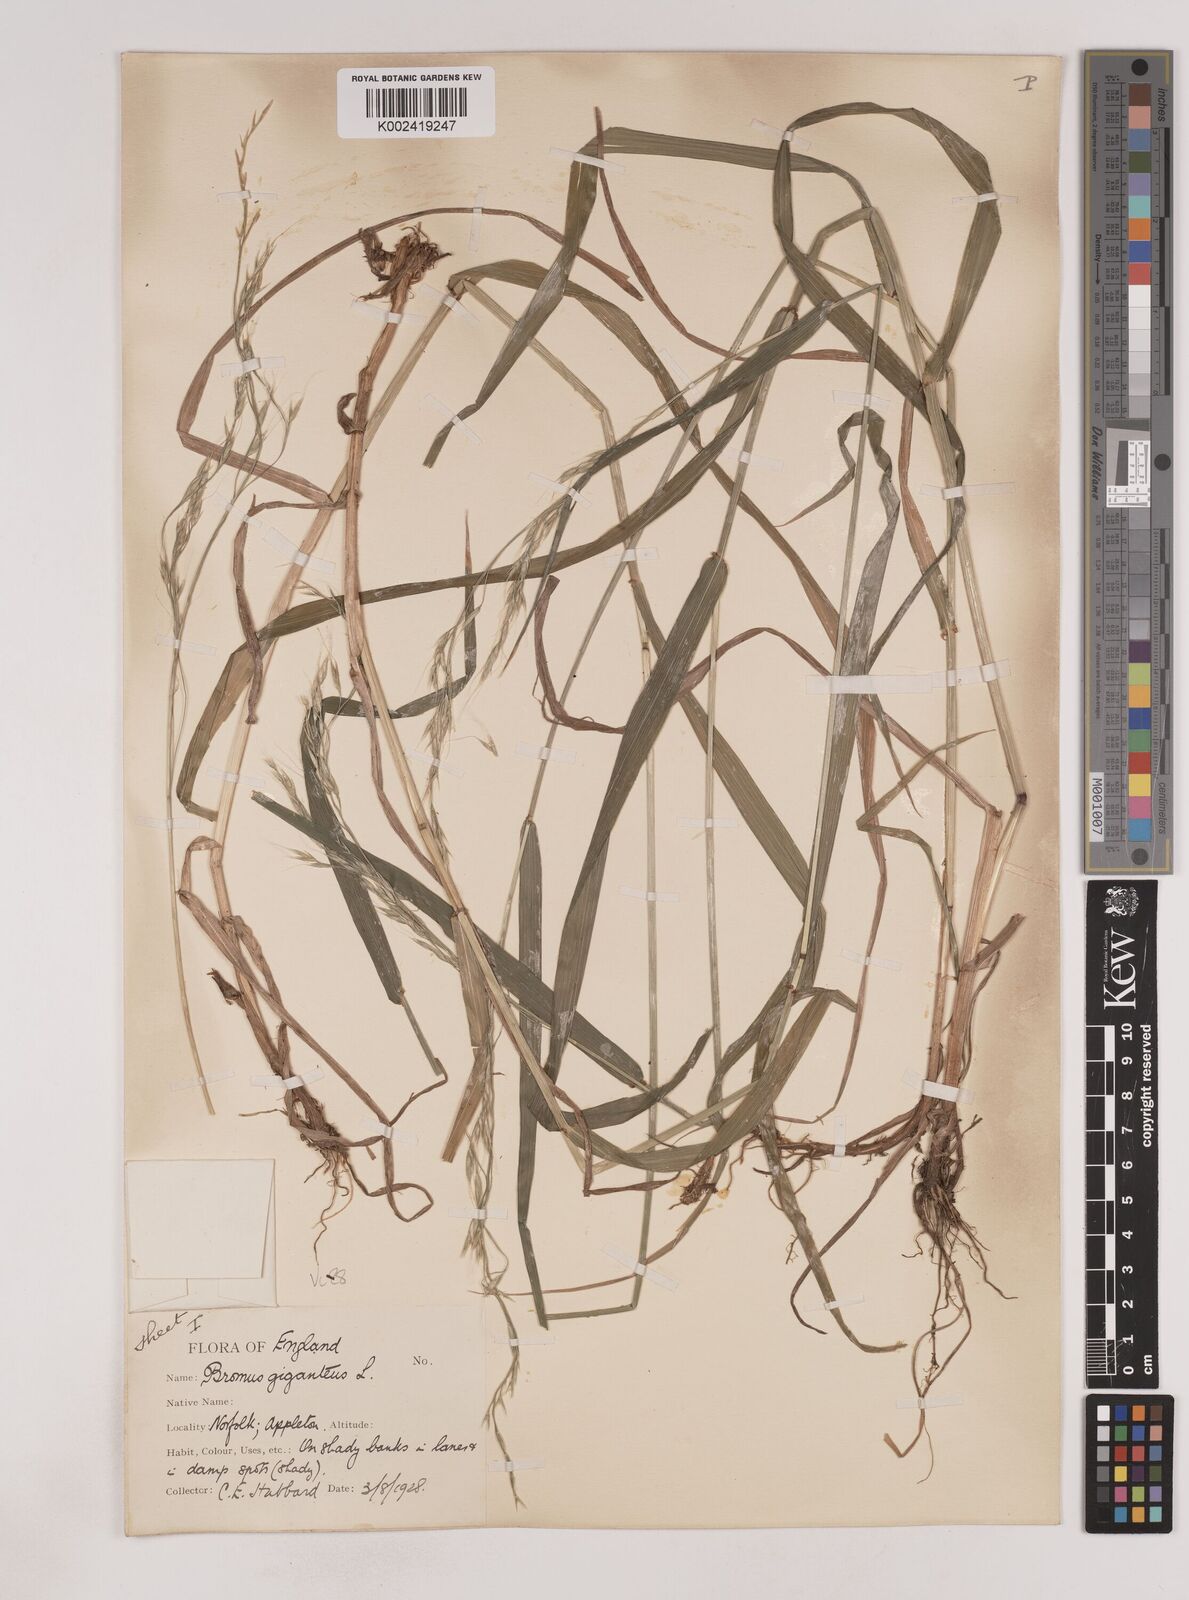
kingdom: Plantae
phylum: Tracheophyta
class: Liliopsida
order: Poales
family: Poaceae
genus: Lolium
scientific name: Lolium giganteum
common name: Giant fescue
